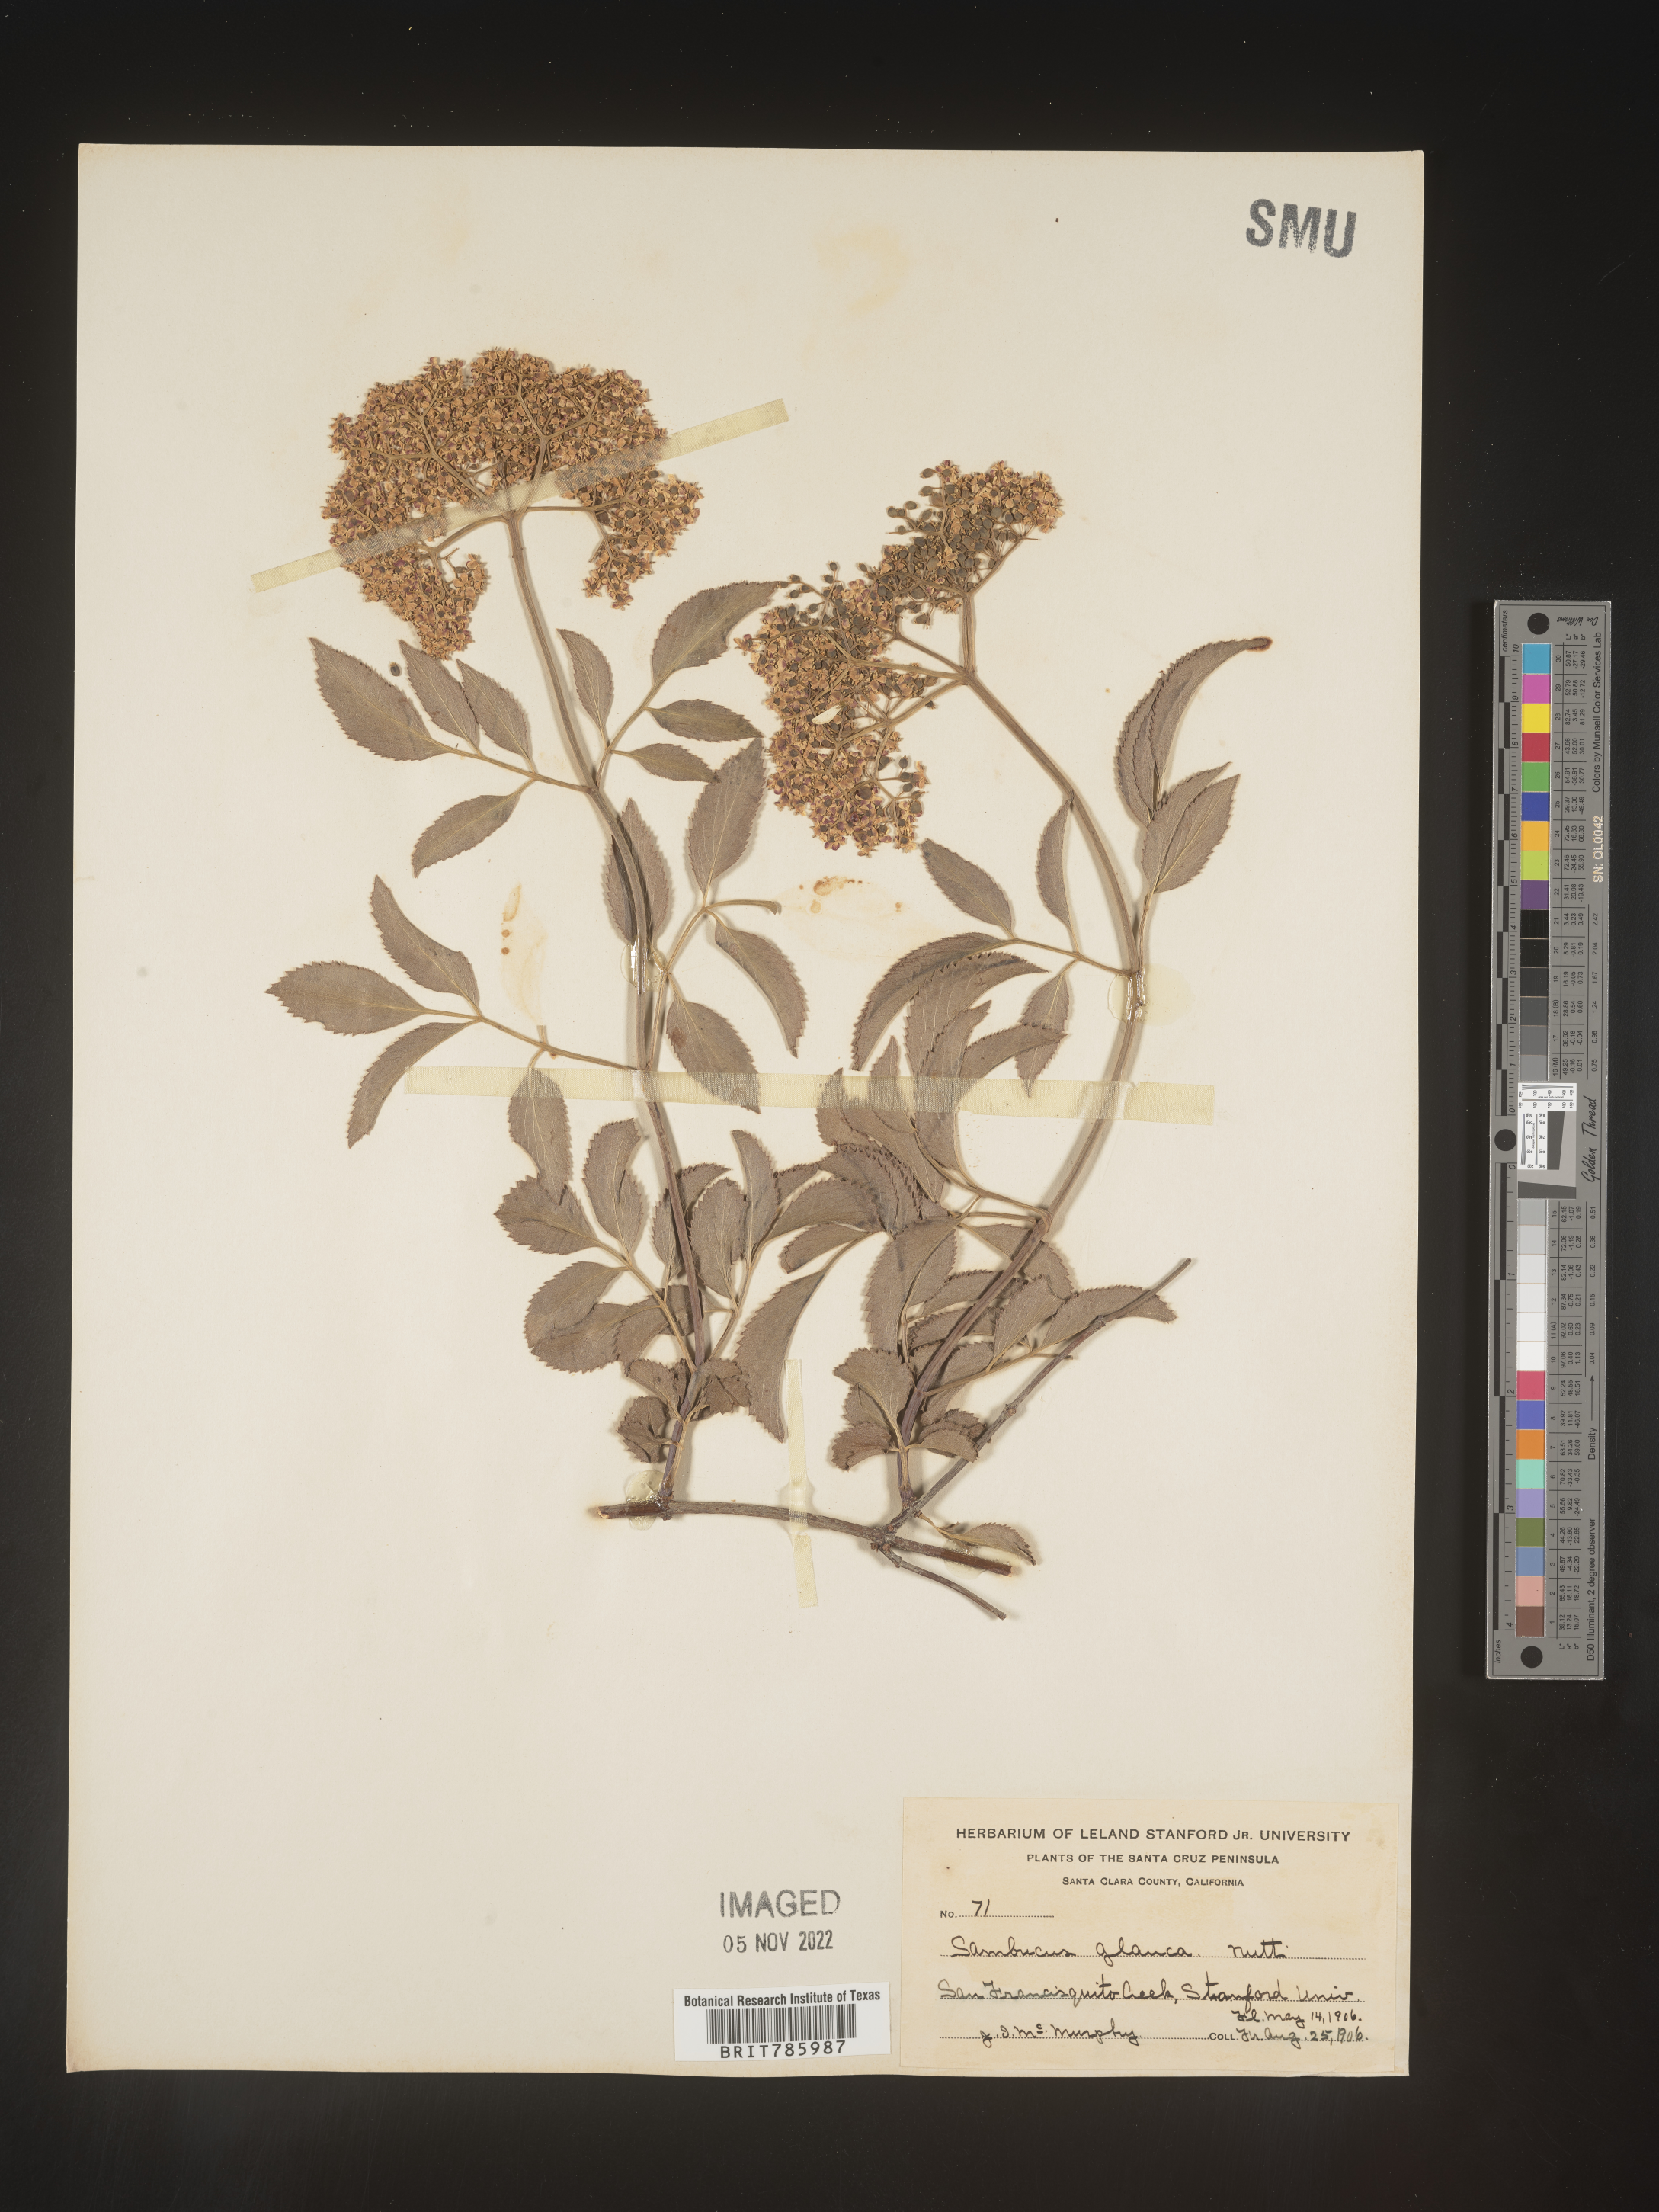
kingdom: Plantae
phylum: Tracheophyta
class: Magnoliopsida
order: Dipsacales
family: Viburnaceae
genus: Sambucus
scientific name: Sambucus
